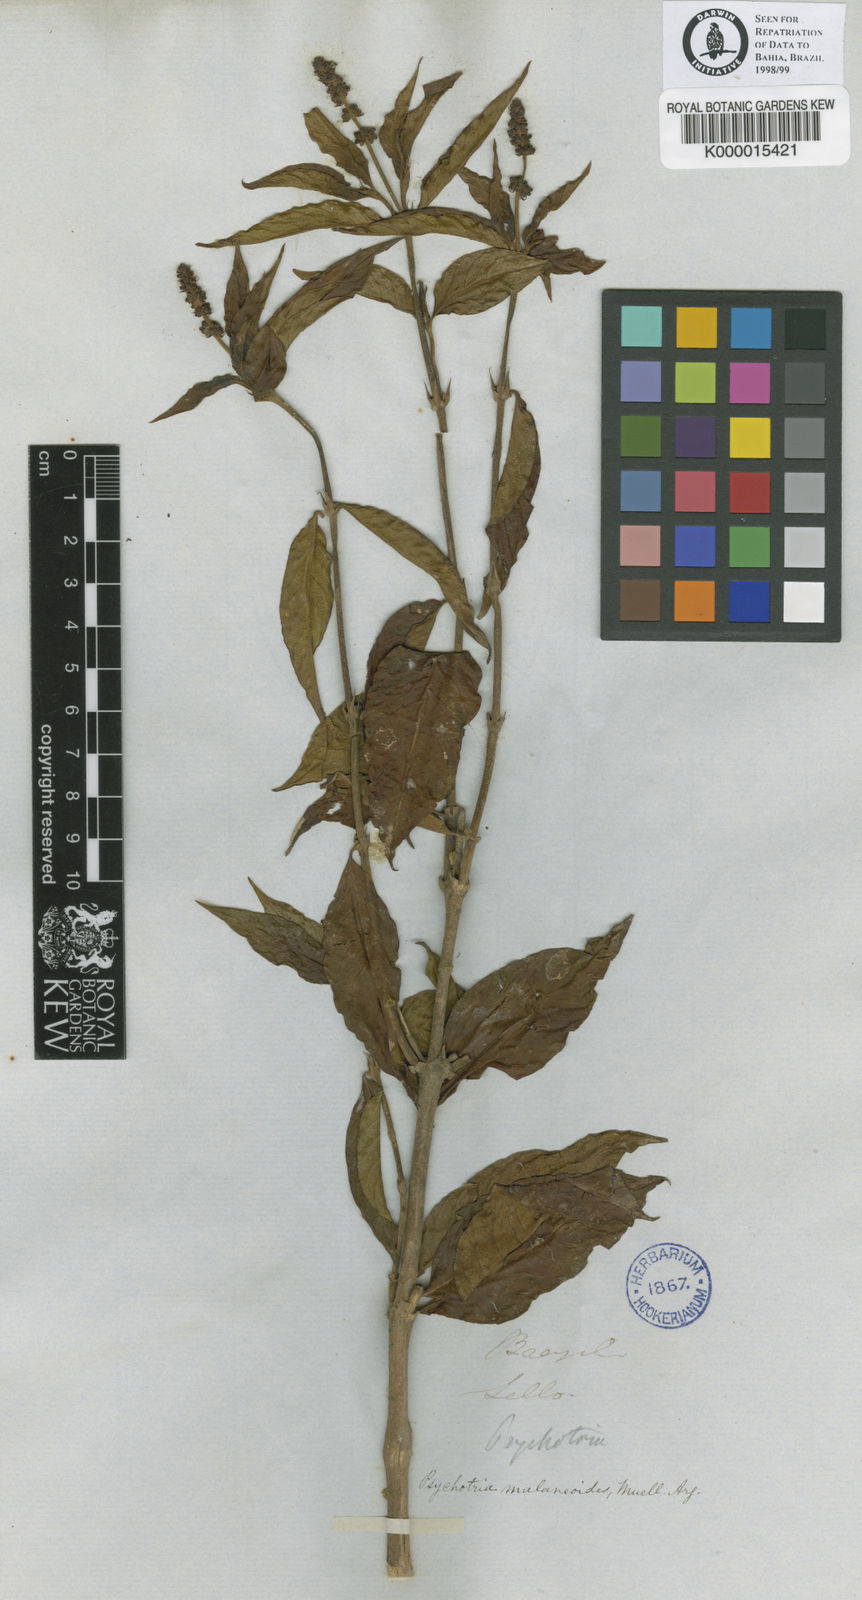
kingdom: Plantae
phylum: Tracheophyta
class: Magnoliopsida
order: Gentianales
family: Rubiaceae
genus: Psychotria
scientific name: Psychotria
